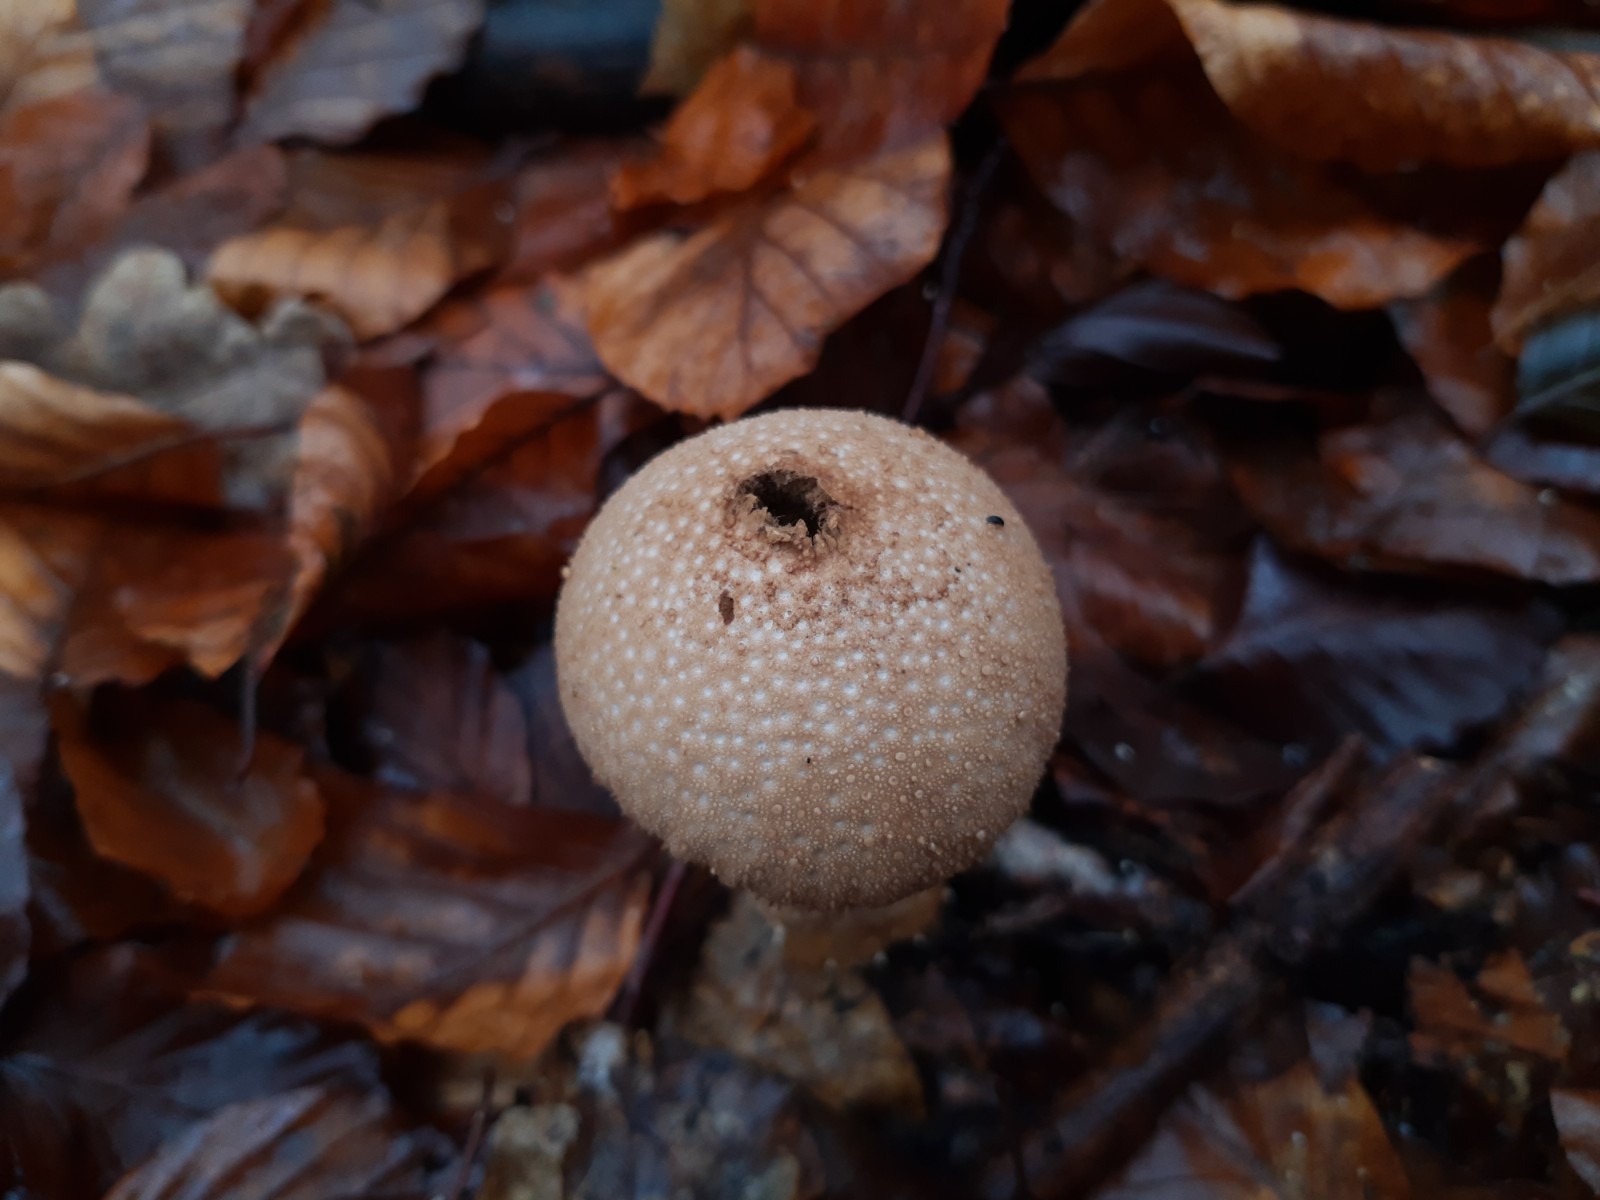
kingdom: Fungi
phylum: Basidiomycota
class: Agaricomycetes
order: Agaricales
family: Lycoperdaceae
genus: Lycoperdon
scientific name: Lycoperdon perlatum
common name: krystal-støvbold
